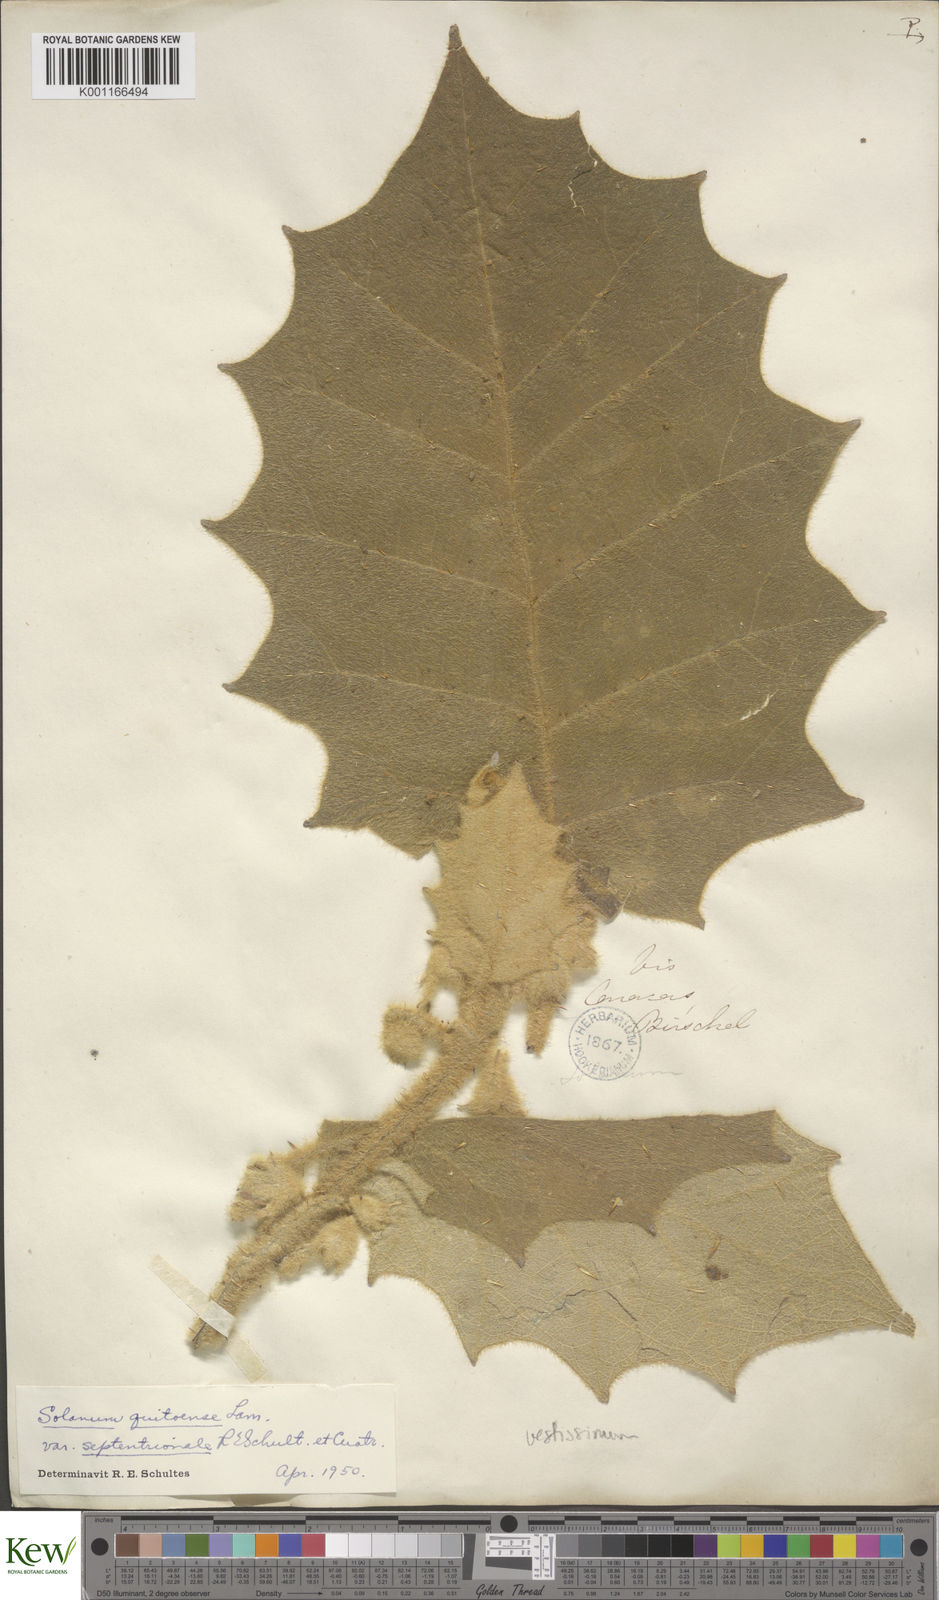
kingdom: Plantae
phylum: Tracheophyta
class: Magnoliopsida
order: Solanales
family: Solanaceae
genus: Solanum
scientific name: Solanum vestissimum
